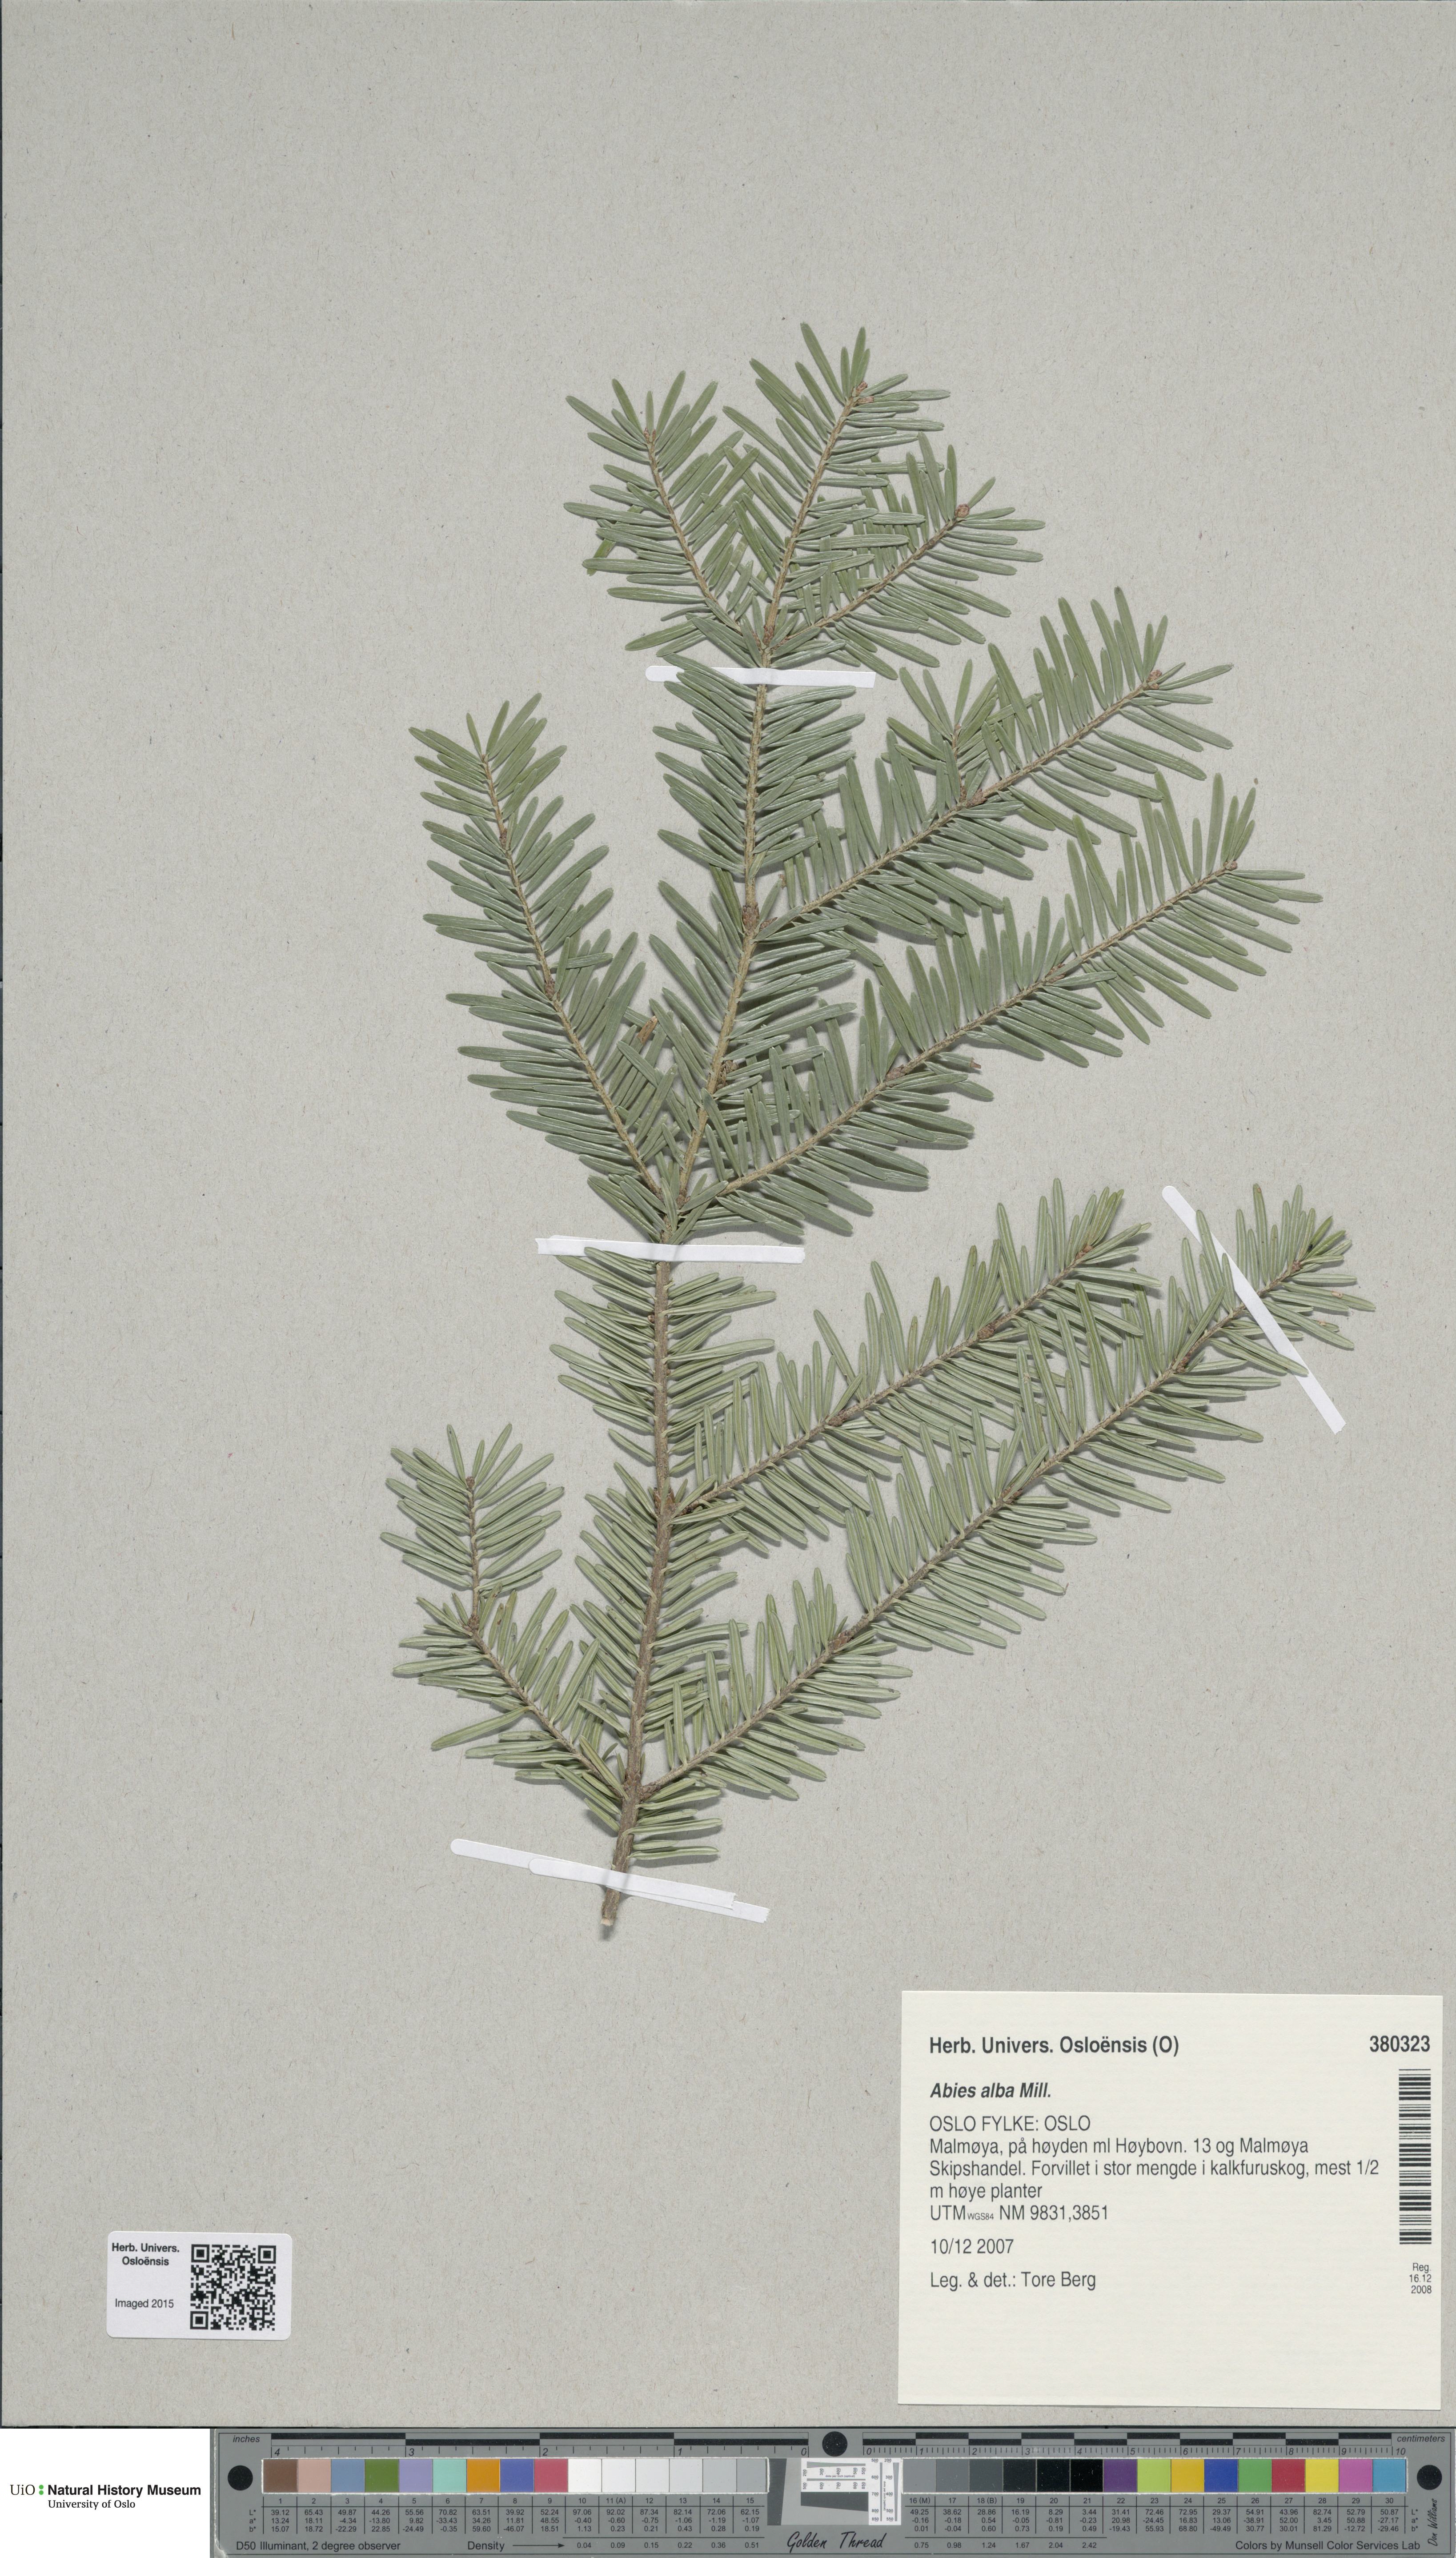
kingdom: Plantae
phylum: Tracheophyta
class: Pinopsida
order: Pinales
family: Pinaceae
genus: Abies
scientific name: Abies alba
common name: Silver fir
